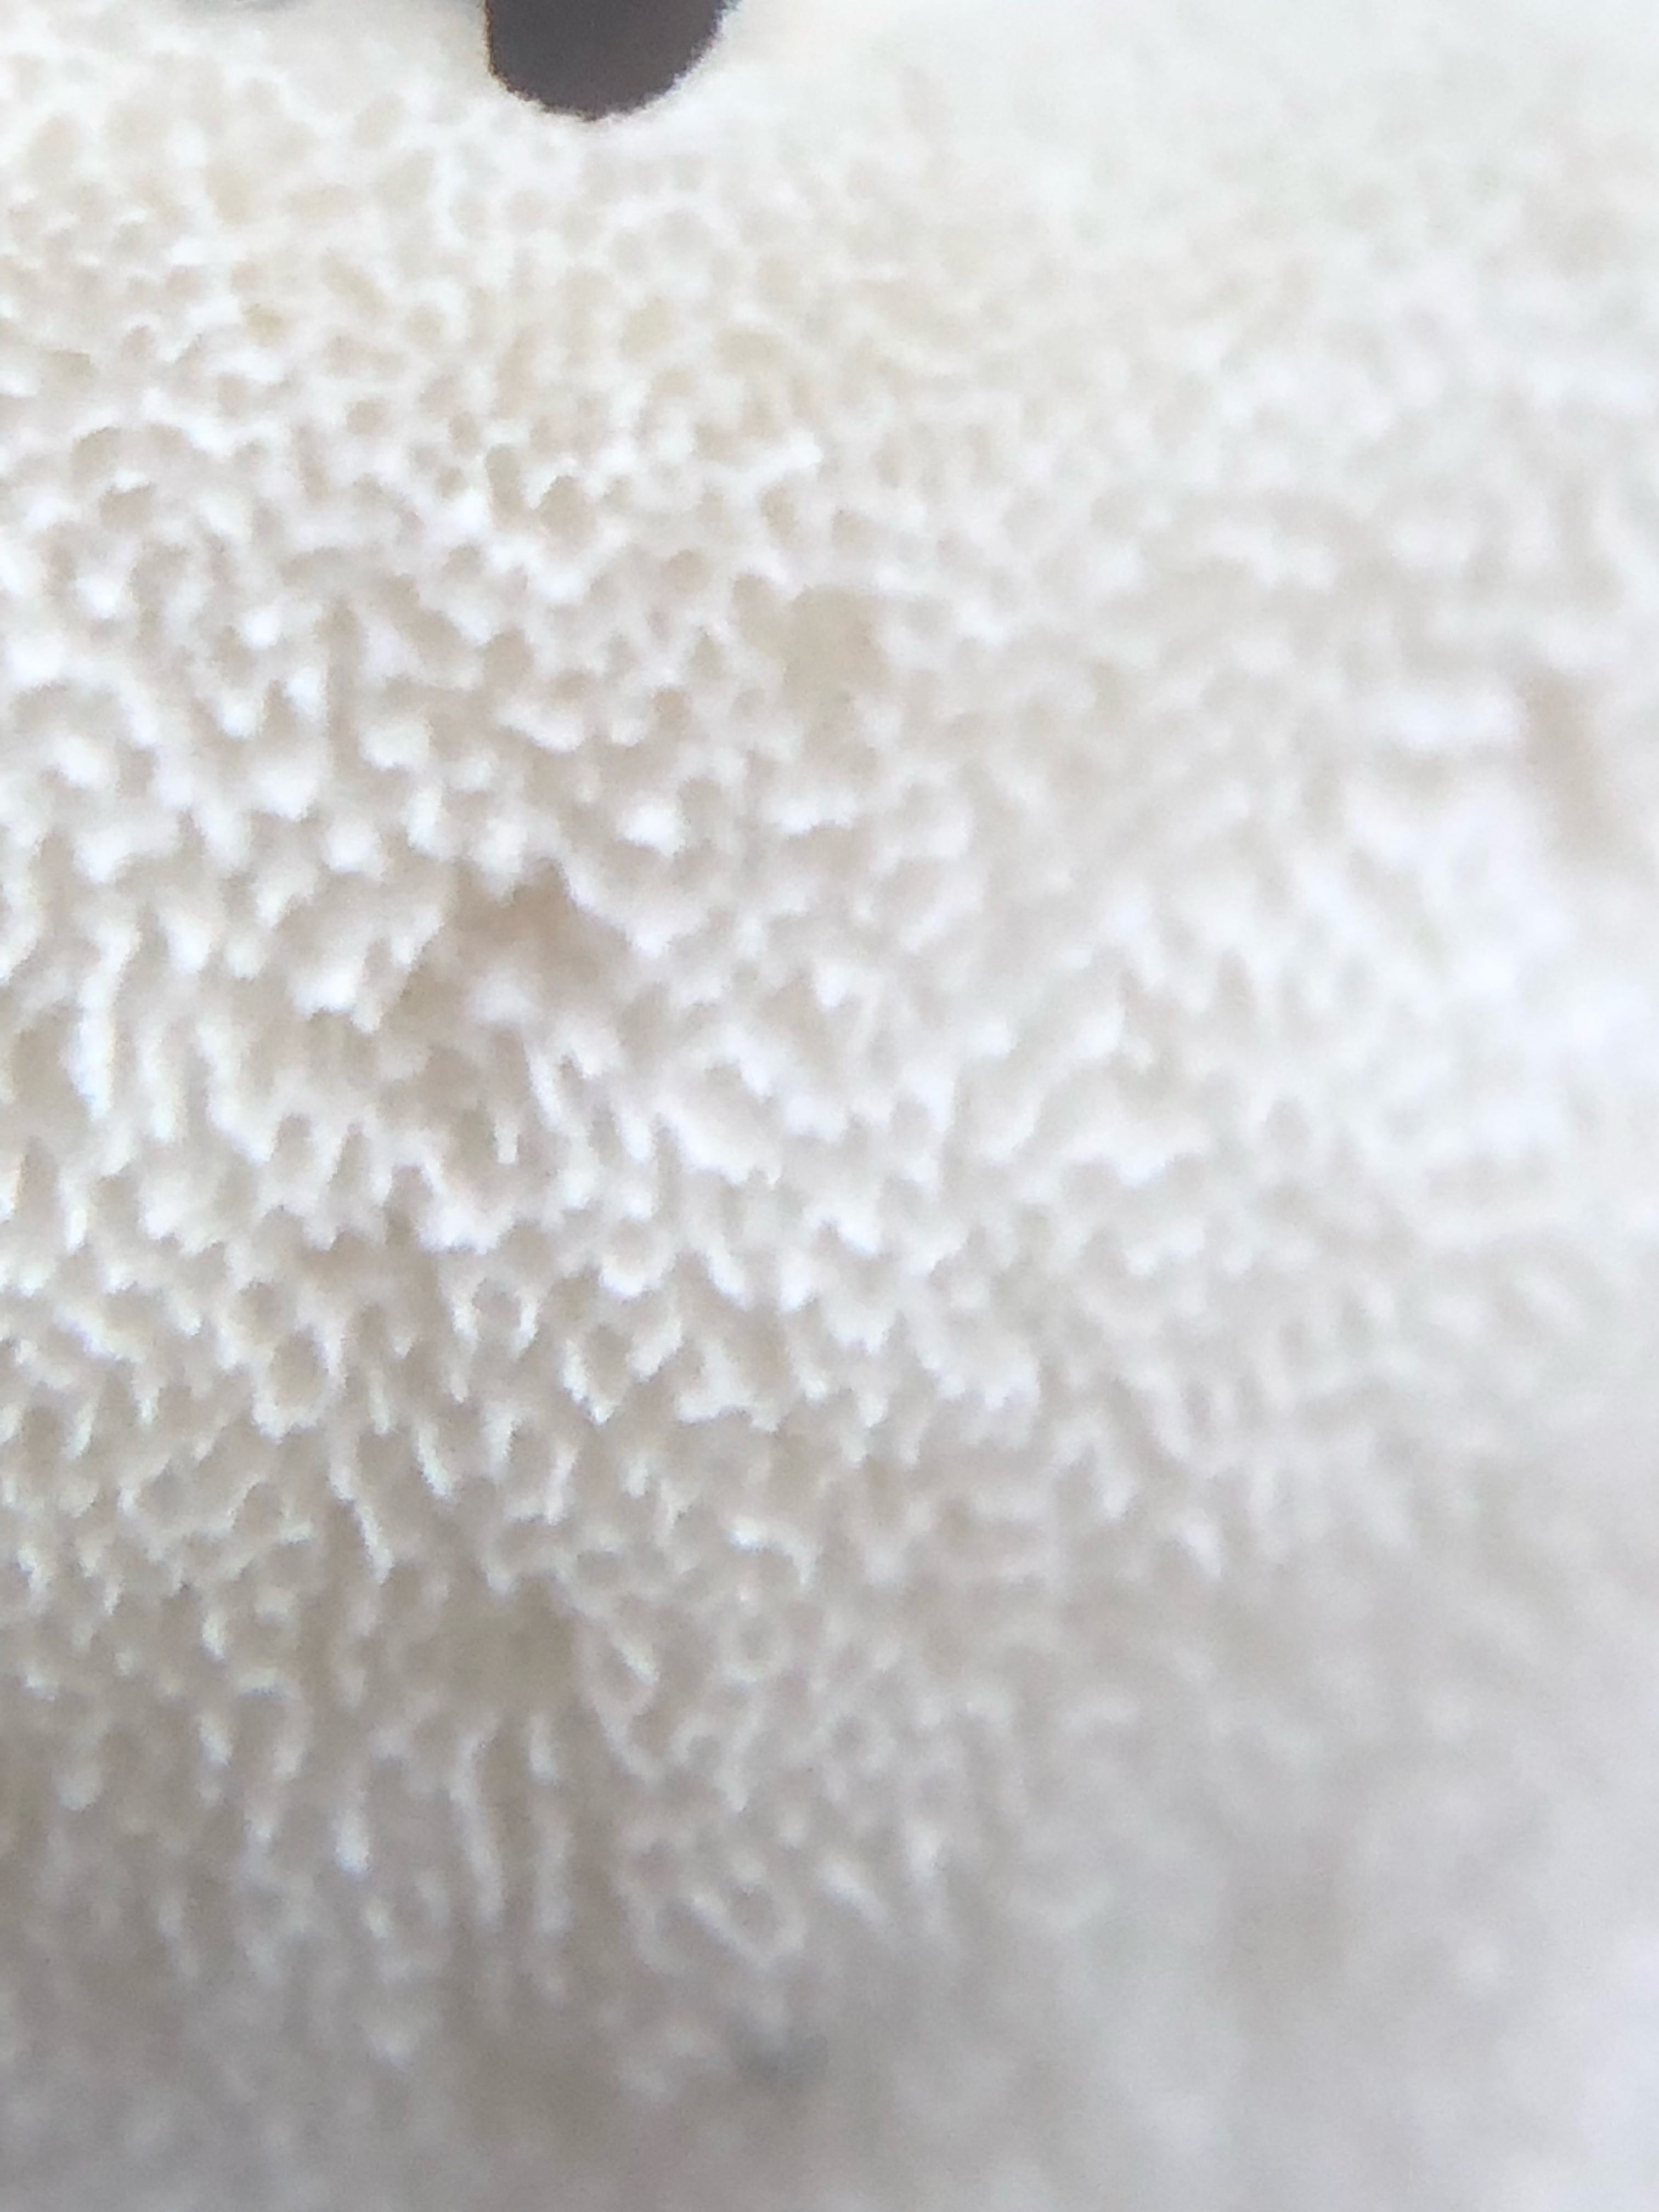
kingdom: Fungi
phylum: Basidiomycota
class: Agaricomycetes
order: Polyporales
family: Polyporaceae
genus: Cyanosporus
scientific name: Cyanosporus alni
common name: blegblå kødporesvamp
